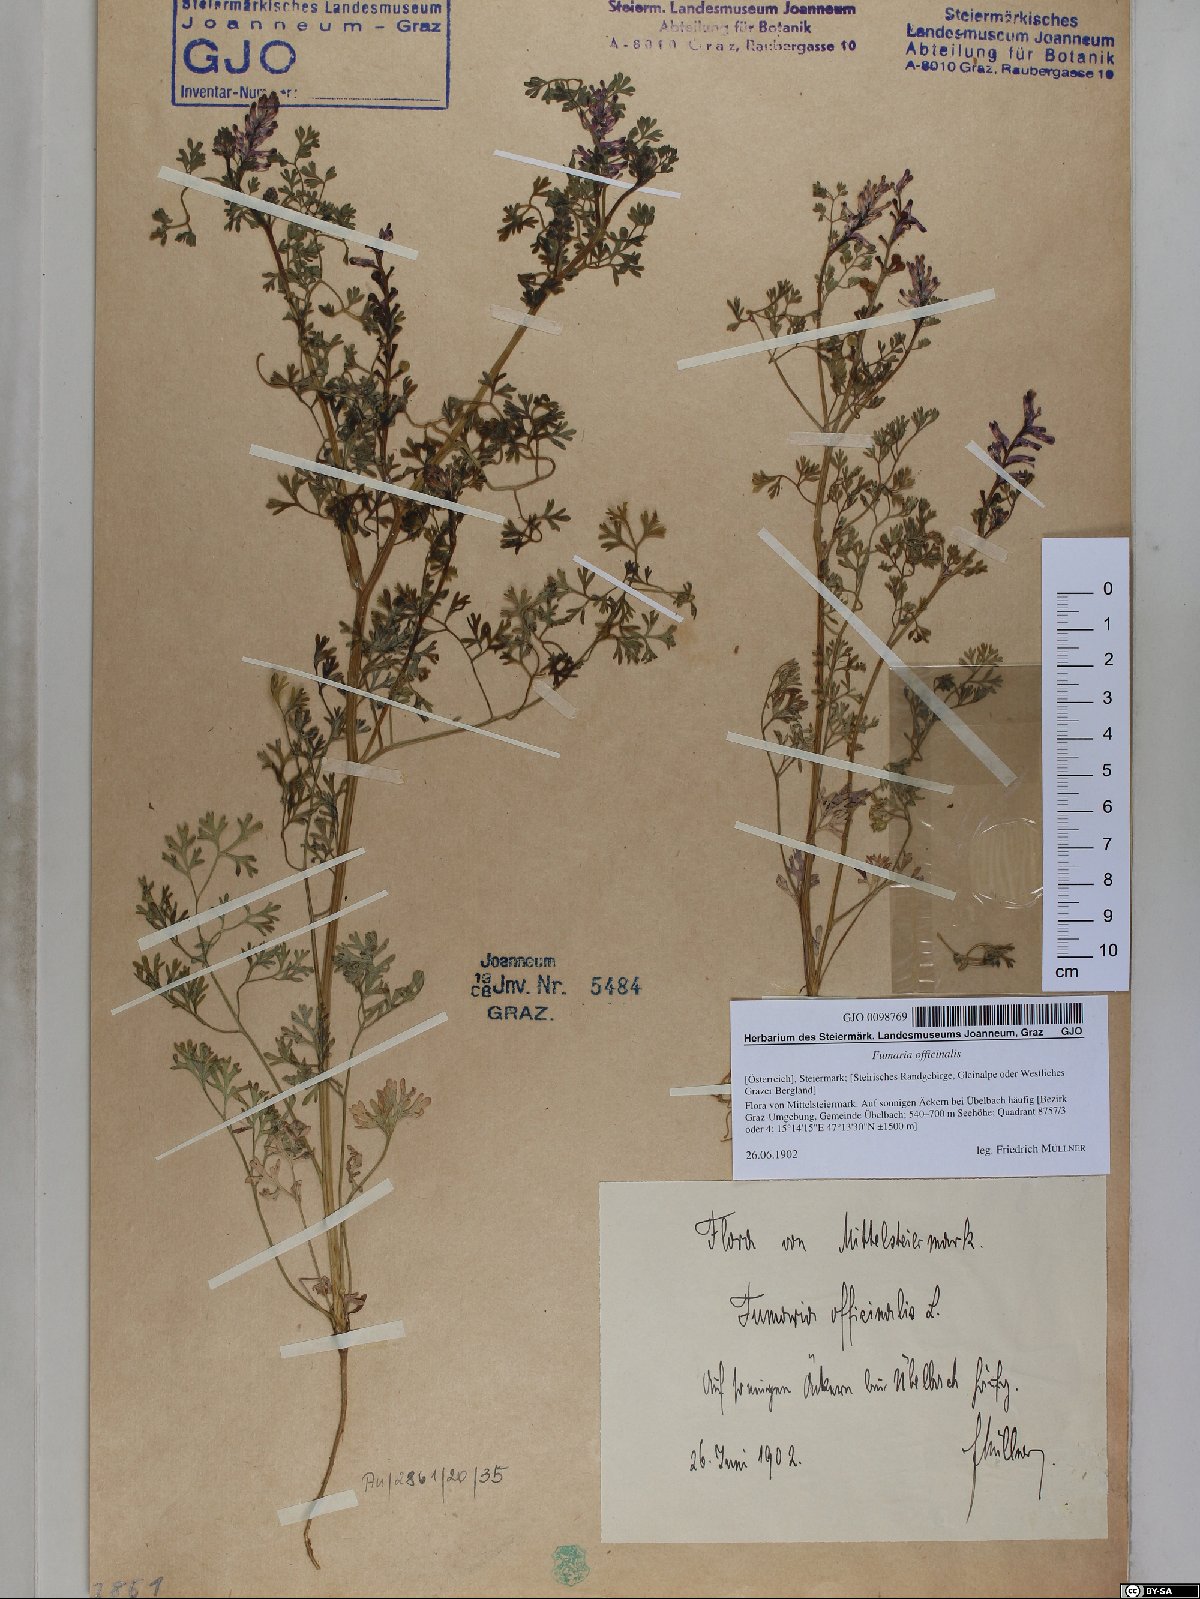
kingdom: Plantae
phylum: Tracheophyta
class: Magnoliopsida
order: Ranunculales
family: Papaveraceae
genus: Fumaria
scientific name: Fumaria officinalis
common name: Common fumitory
